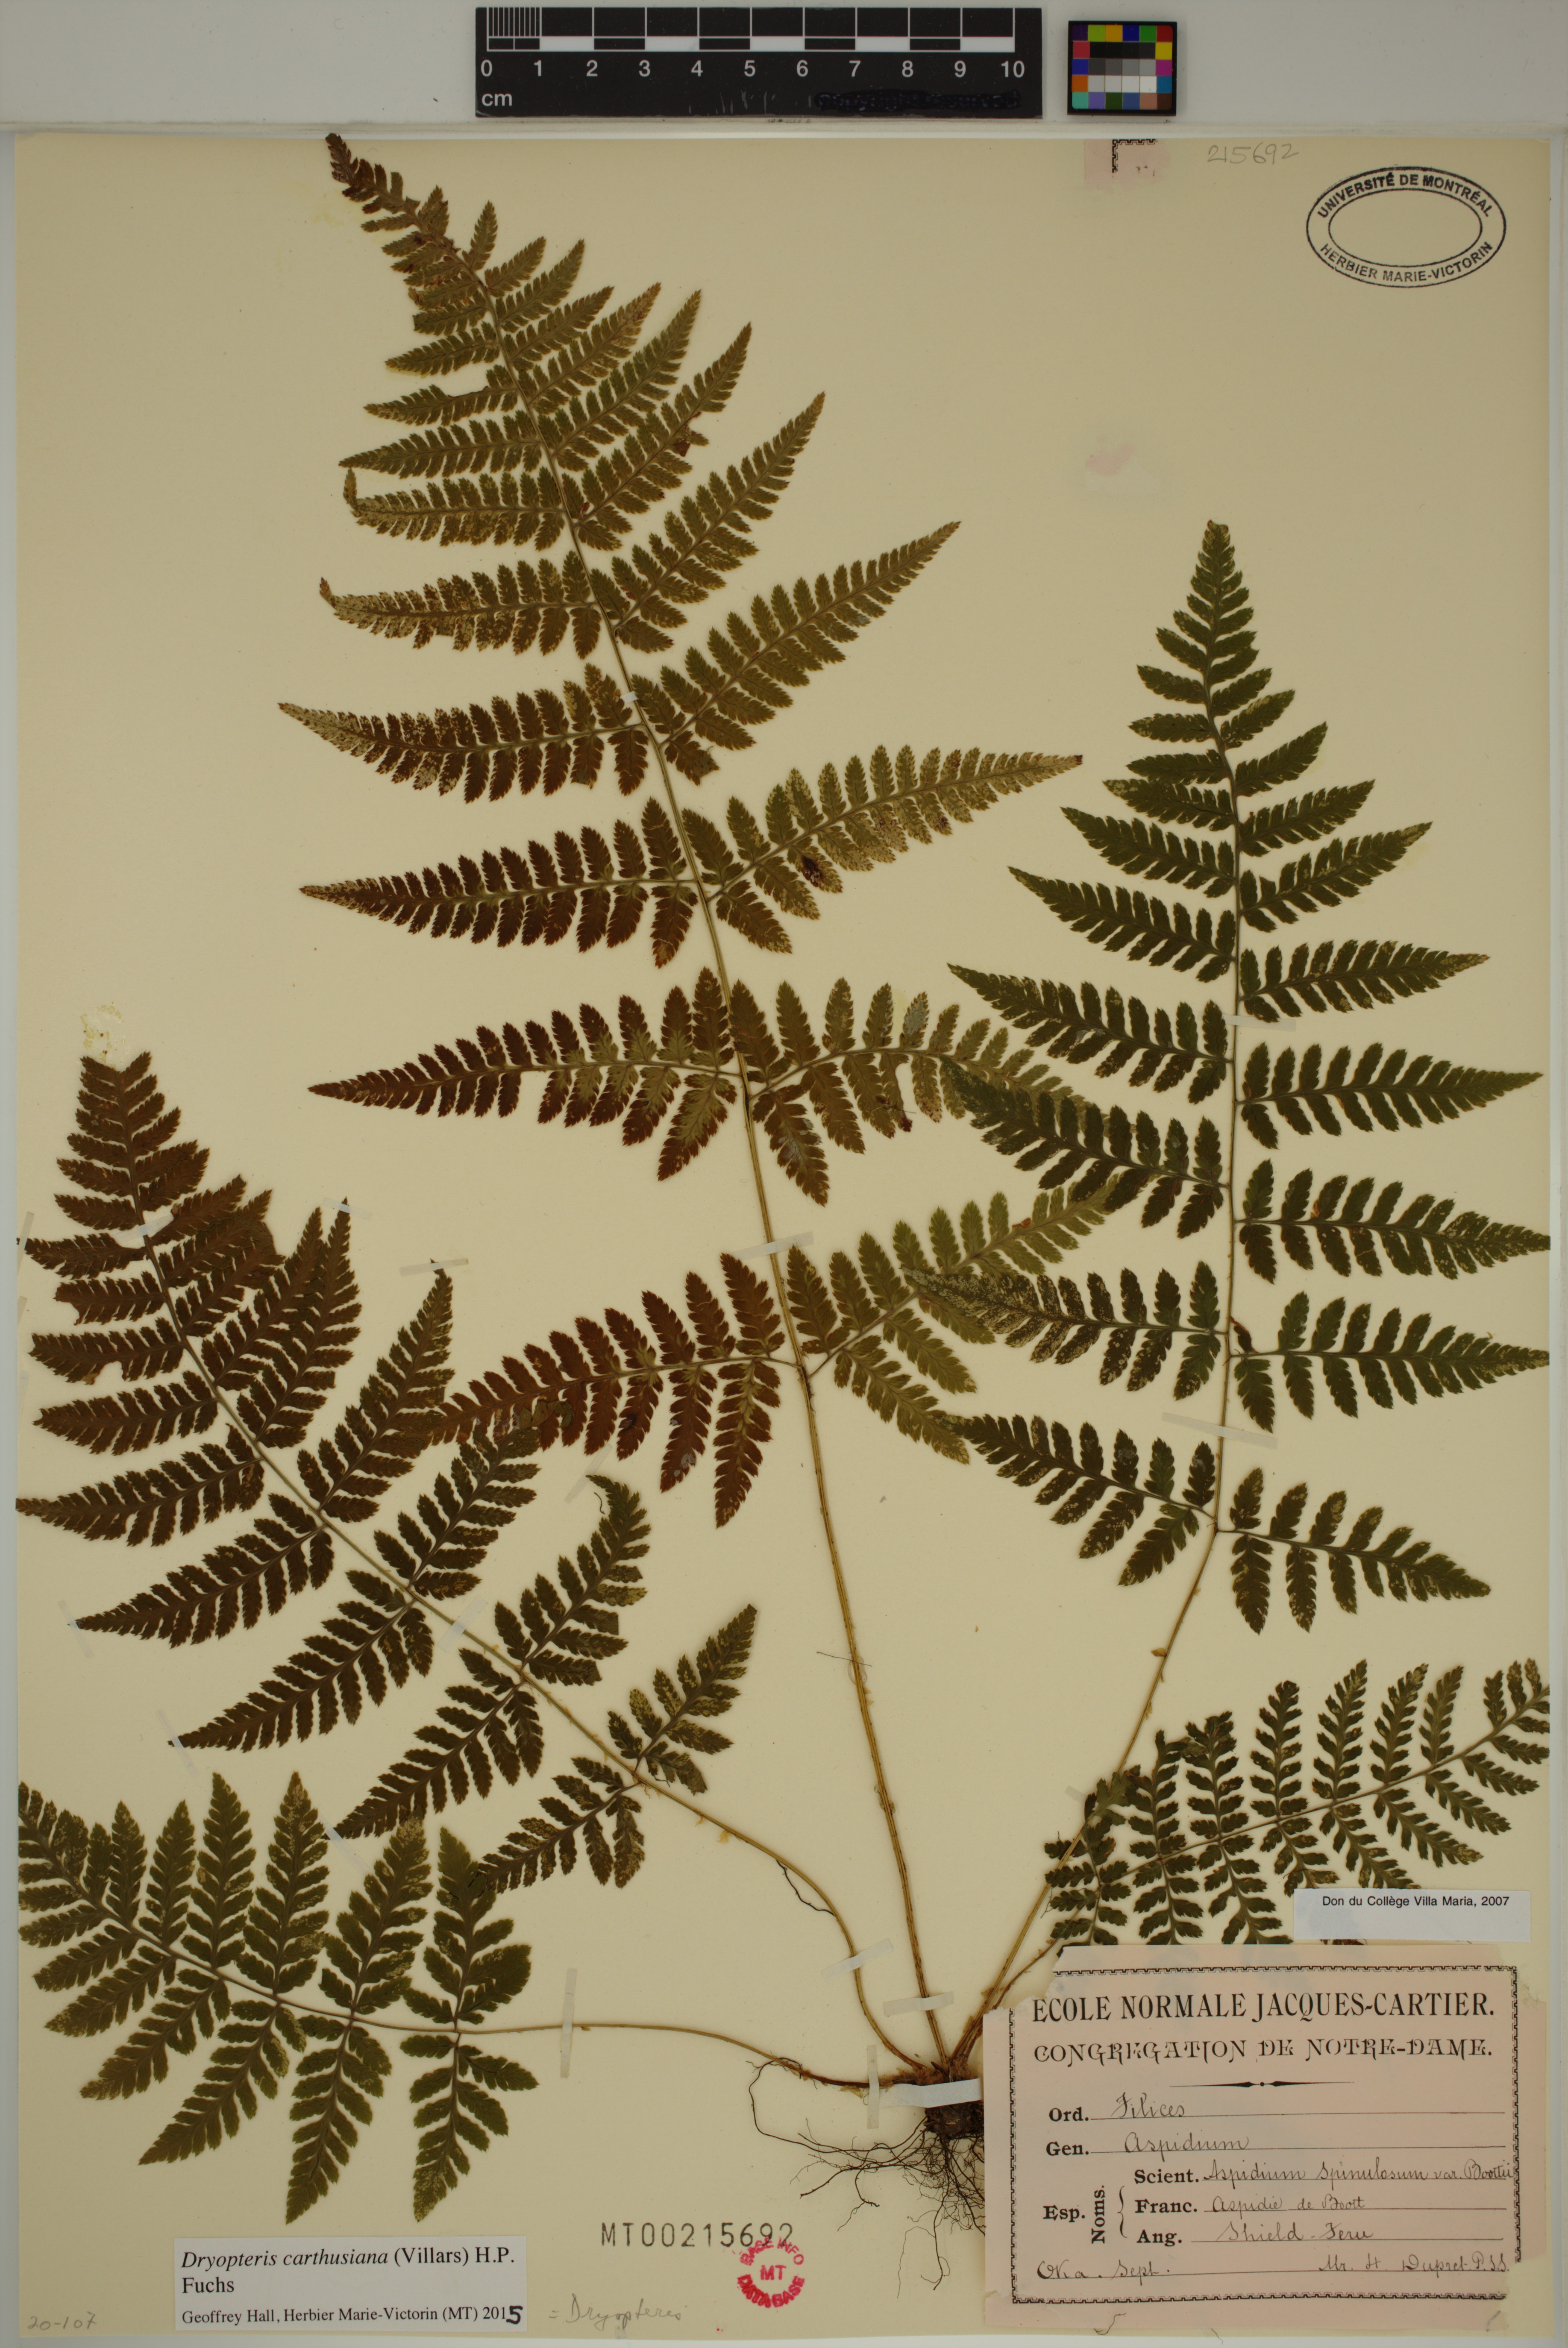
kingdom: Plantae
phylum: Tracheophyta
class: Polypodiopsida
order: Polypodiales
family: Dryopteridaceae
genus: Dryopteris
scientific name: Dryopteris carthusiana
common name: Narrow buckler-fern
